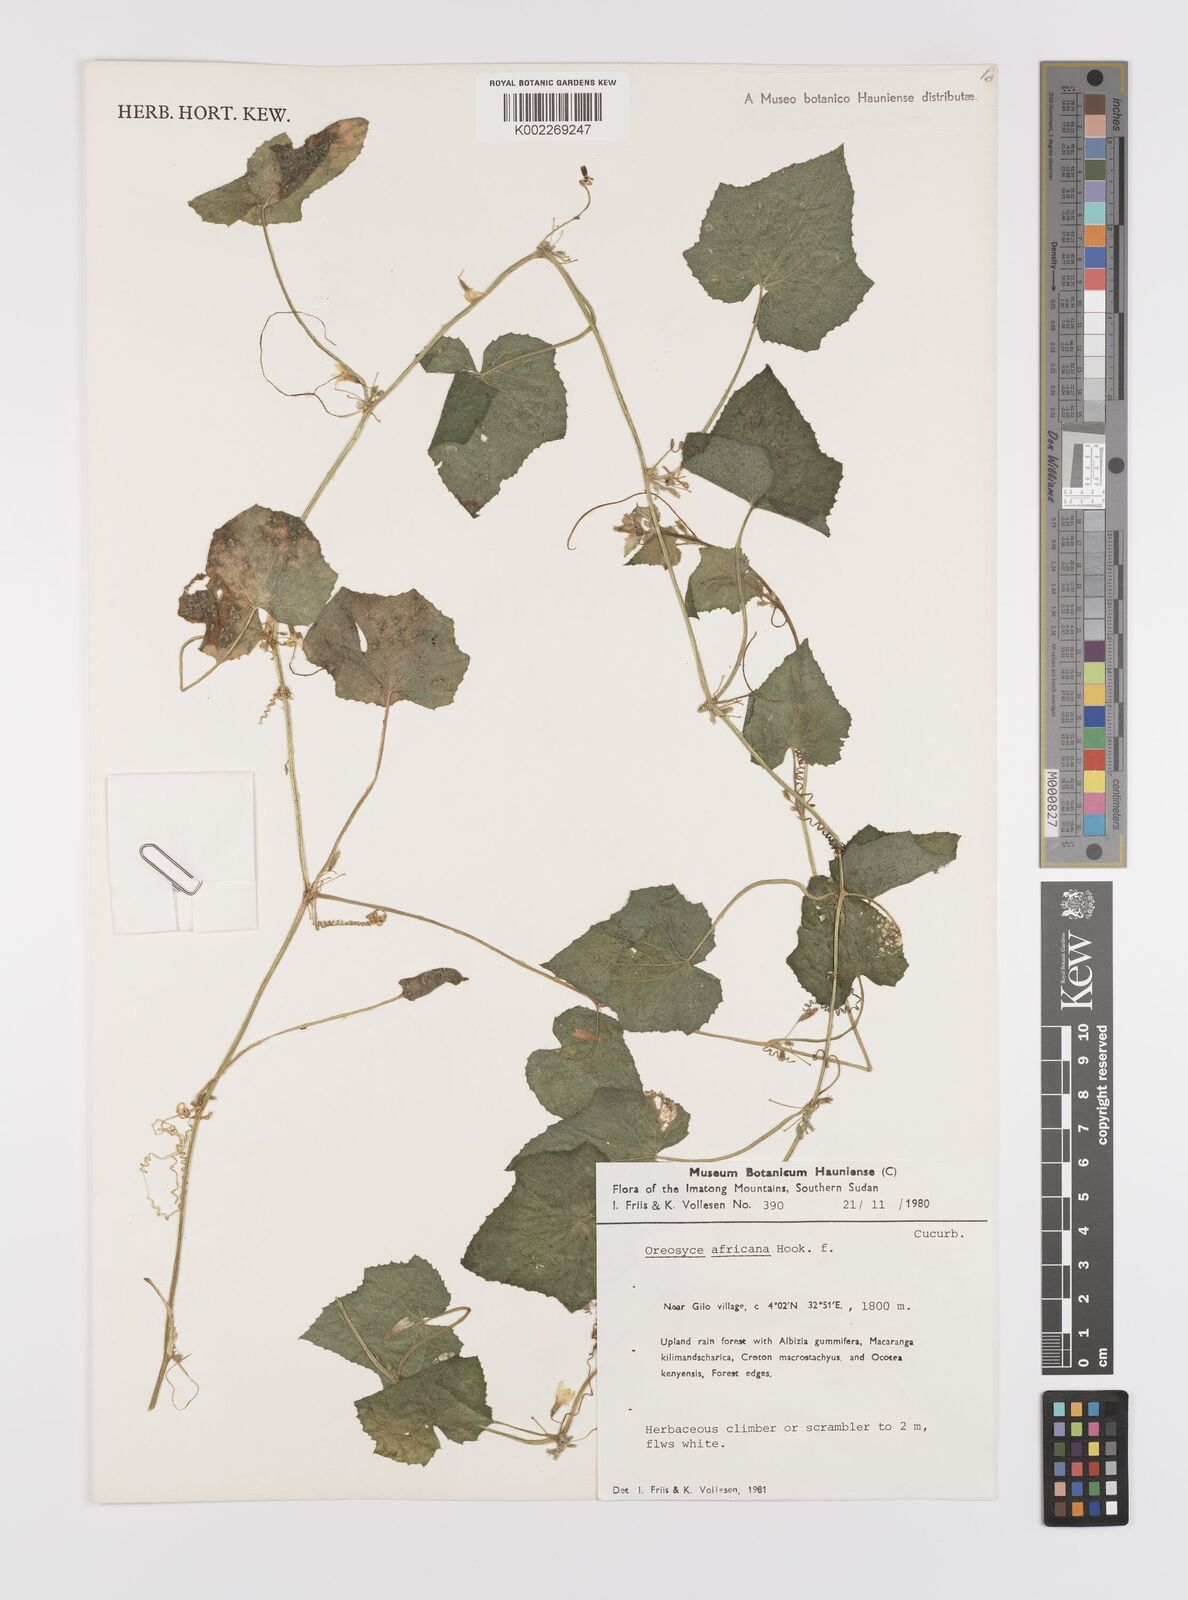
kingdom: Plantae
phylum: Tracheophyta
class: Magnoliopsida
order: Cucurbitales
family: Cucurbitaceae
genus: Cucumis
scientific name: Cucumis oreosyce
